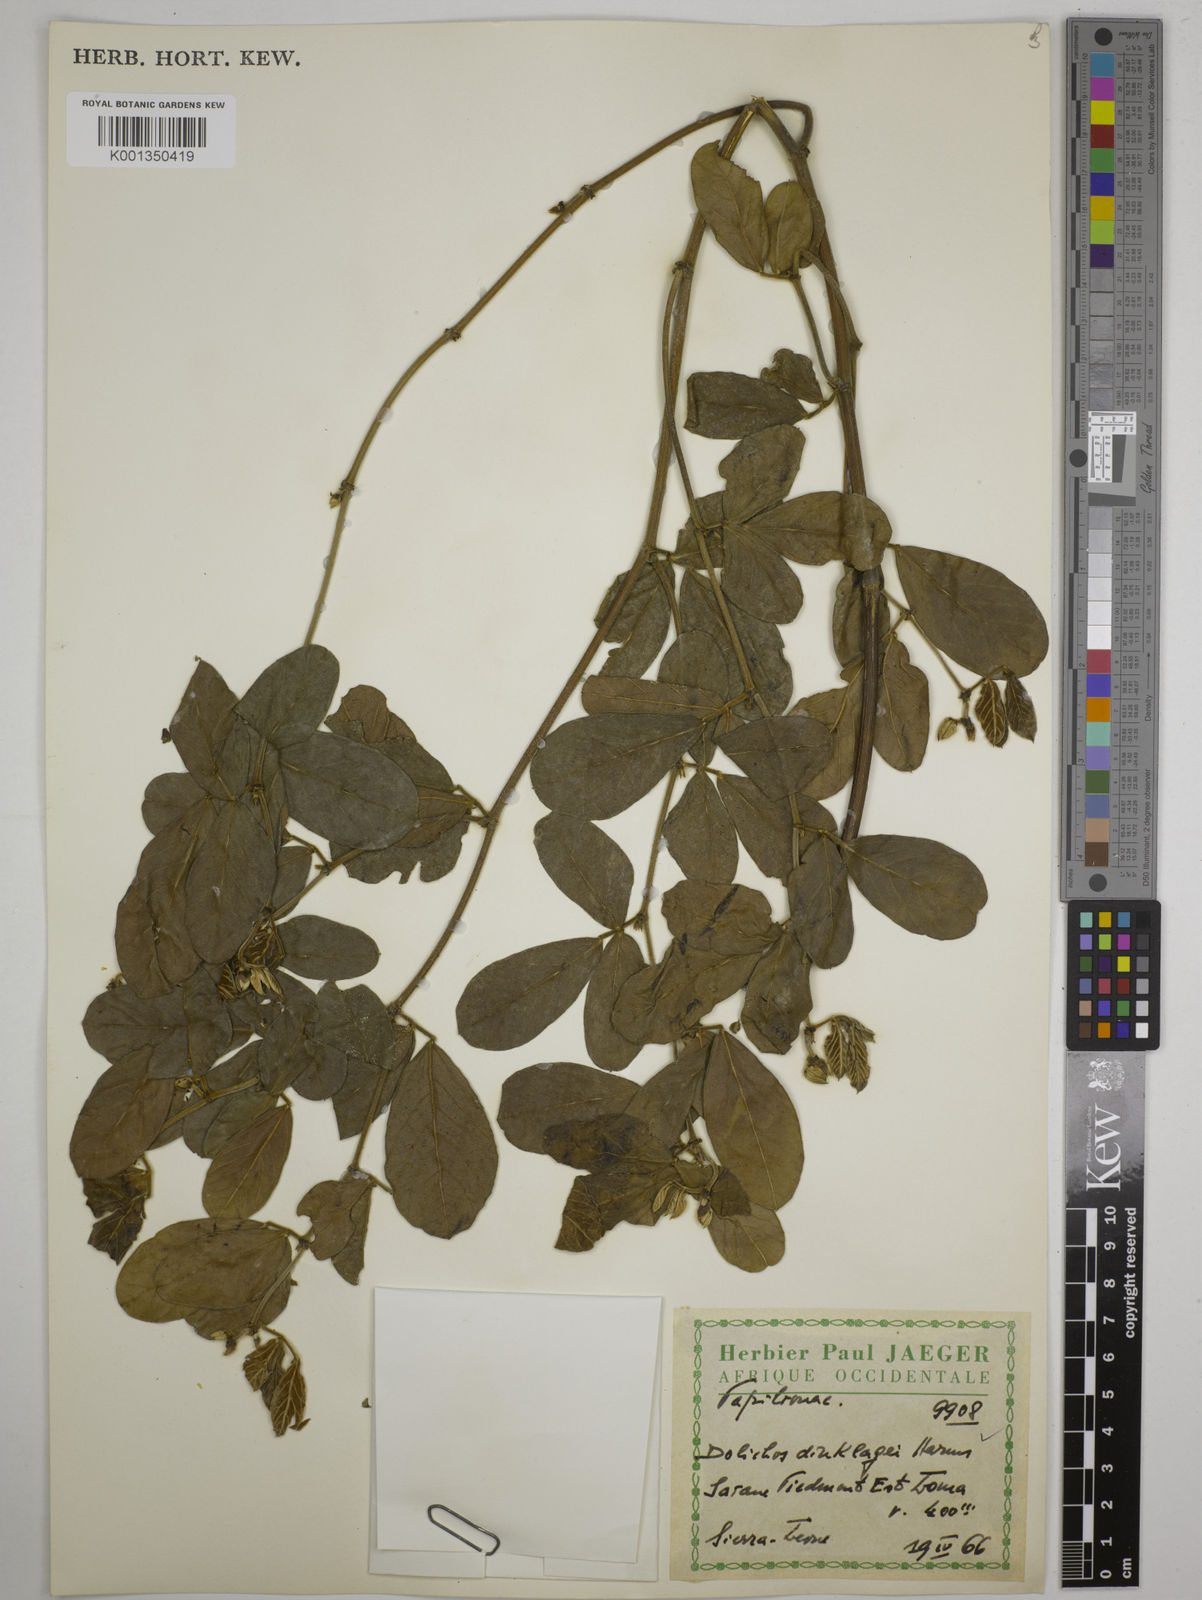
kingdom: Plantae
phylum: Tracheophyta
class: Magnoliopsida
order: Fabales
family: Fabaceae
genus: Dolichos
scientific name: Dolichos dinklagei
